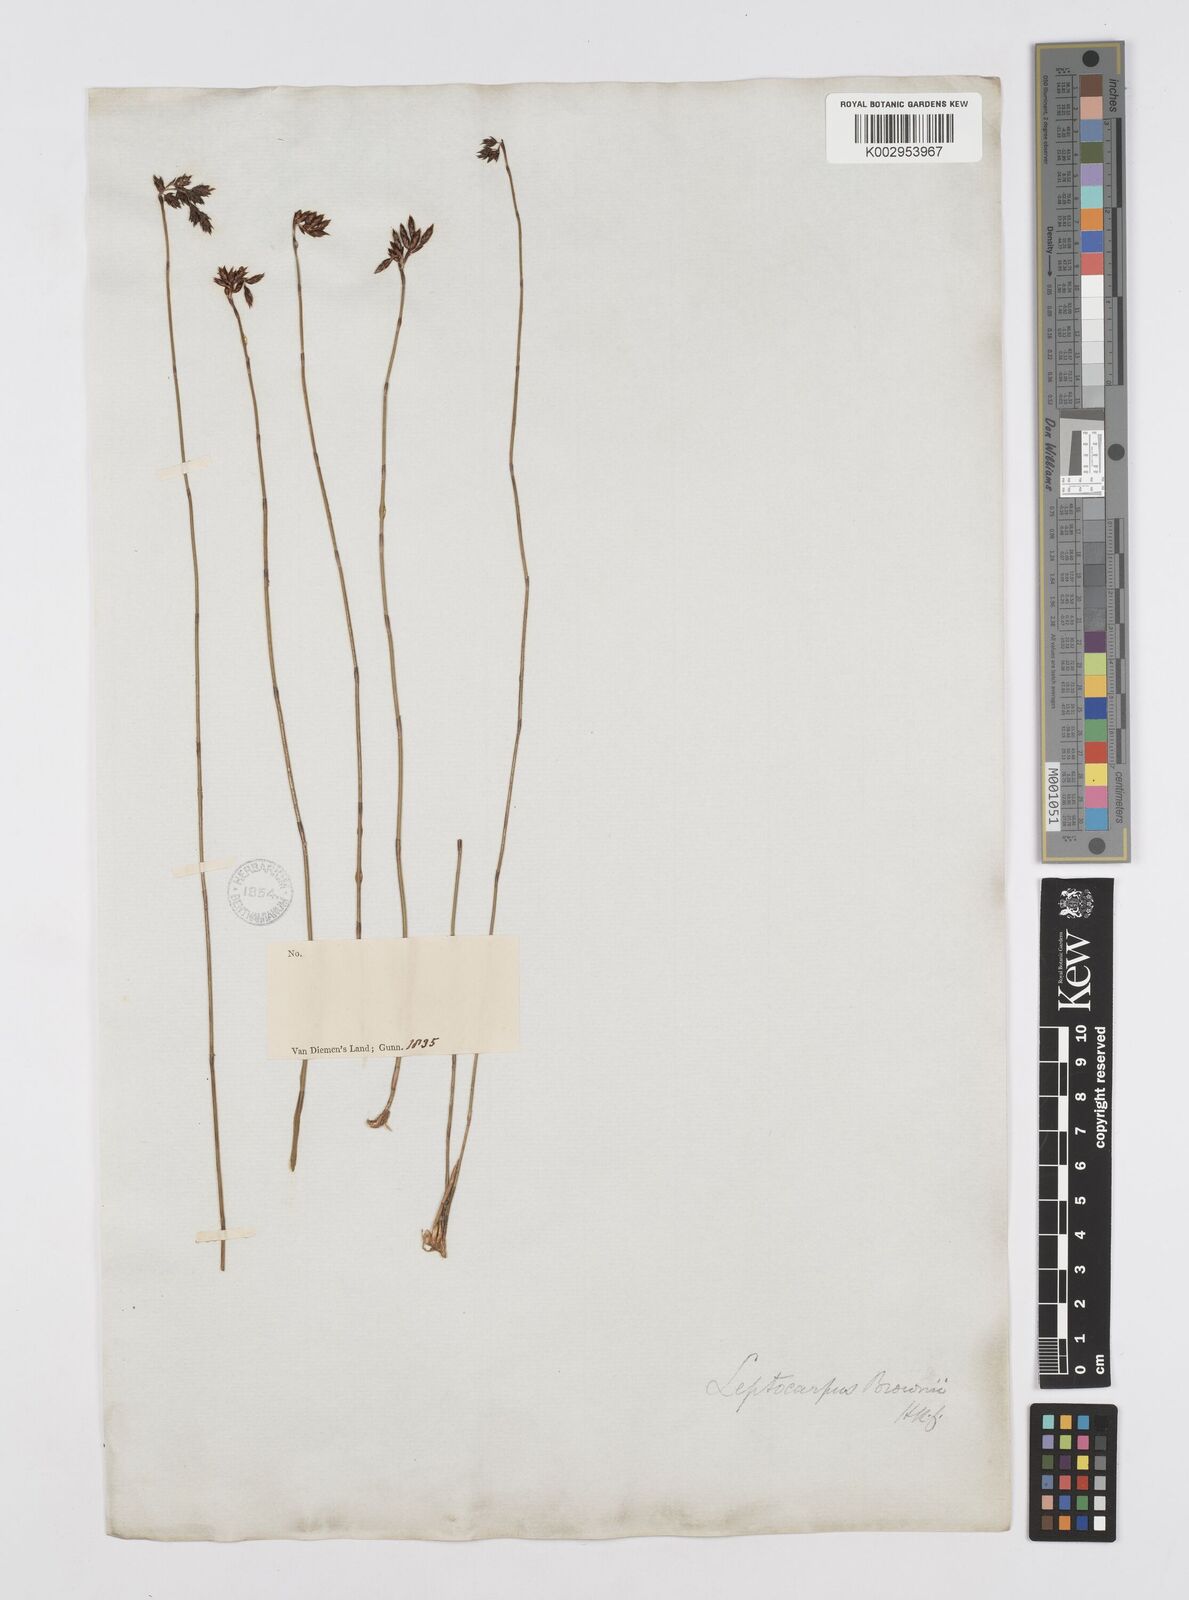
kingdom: Plantae
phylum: Tracheophyta
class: Liliopsida
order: Poales
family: Restionaceae
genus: Apodasmia
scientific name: Apodasmia brownii
